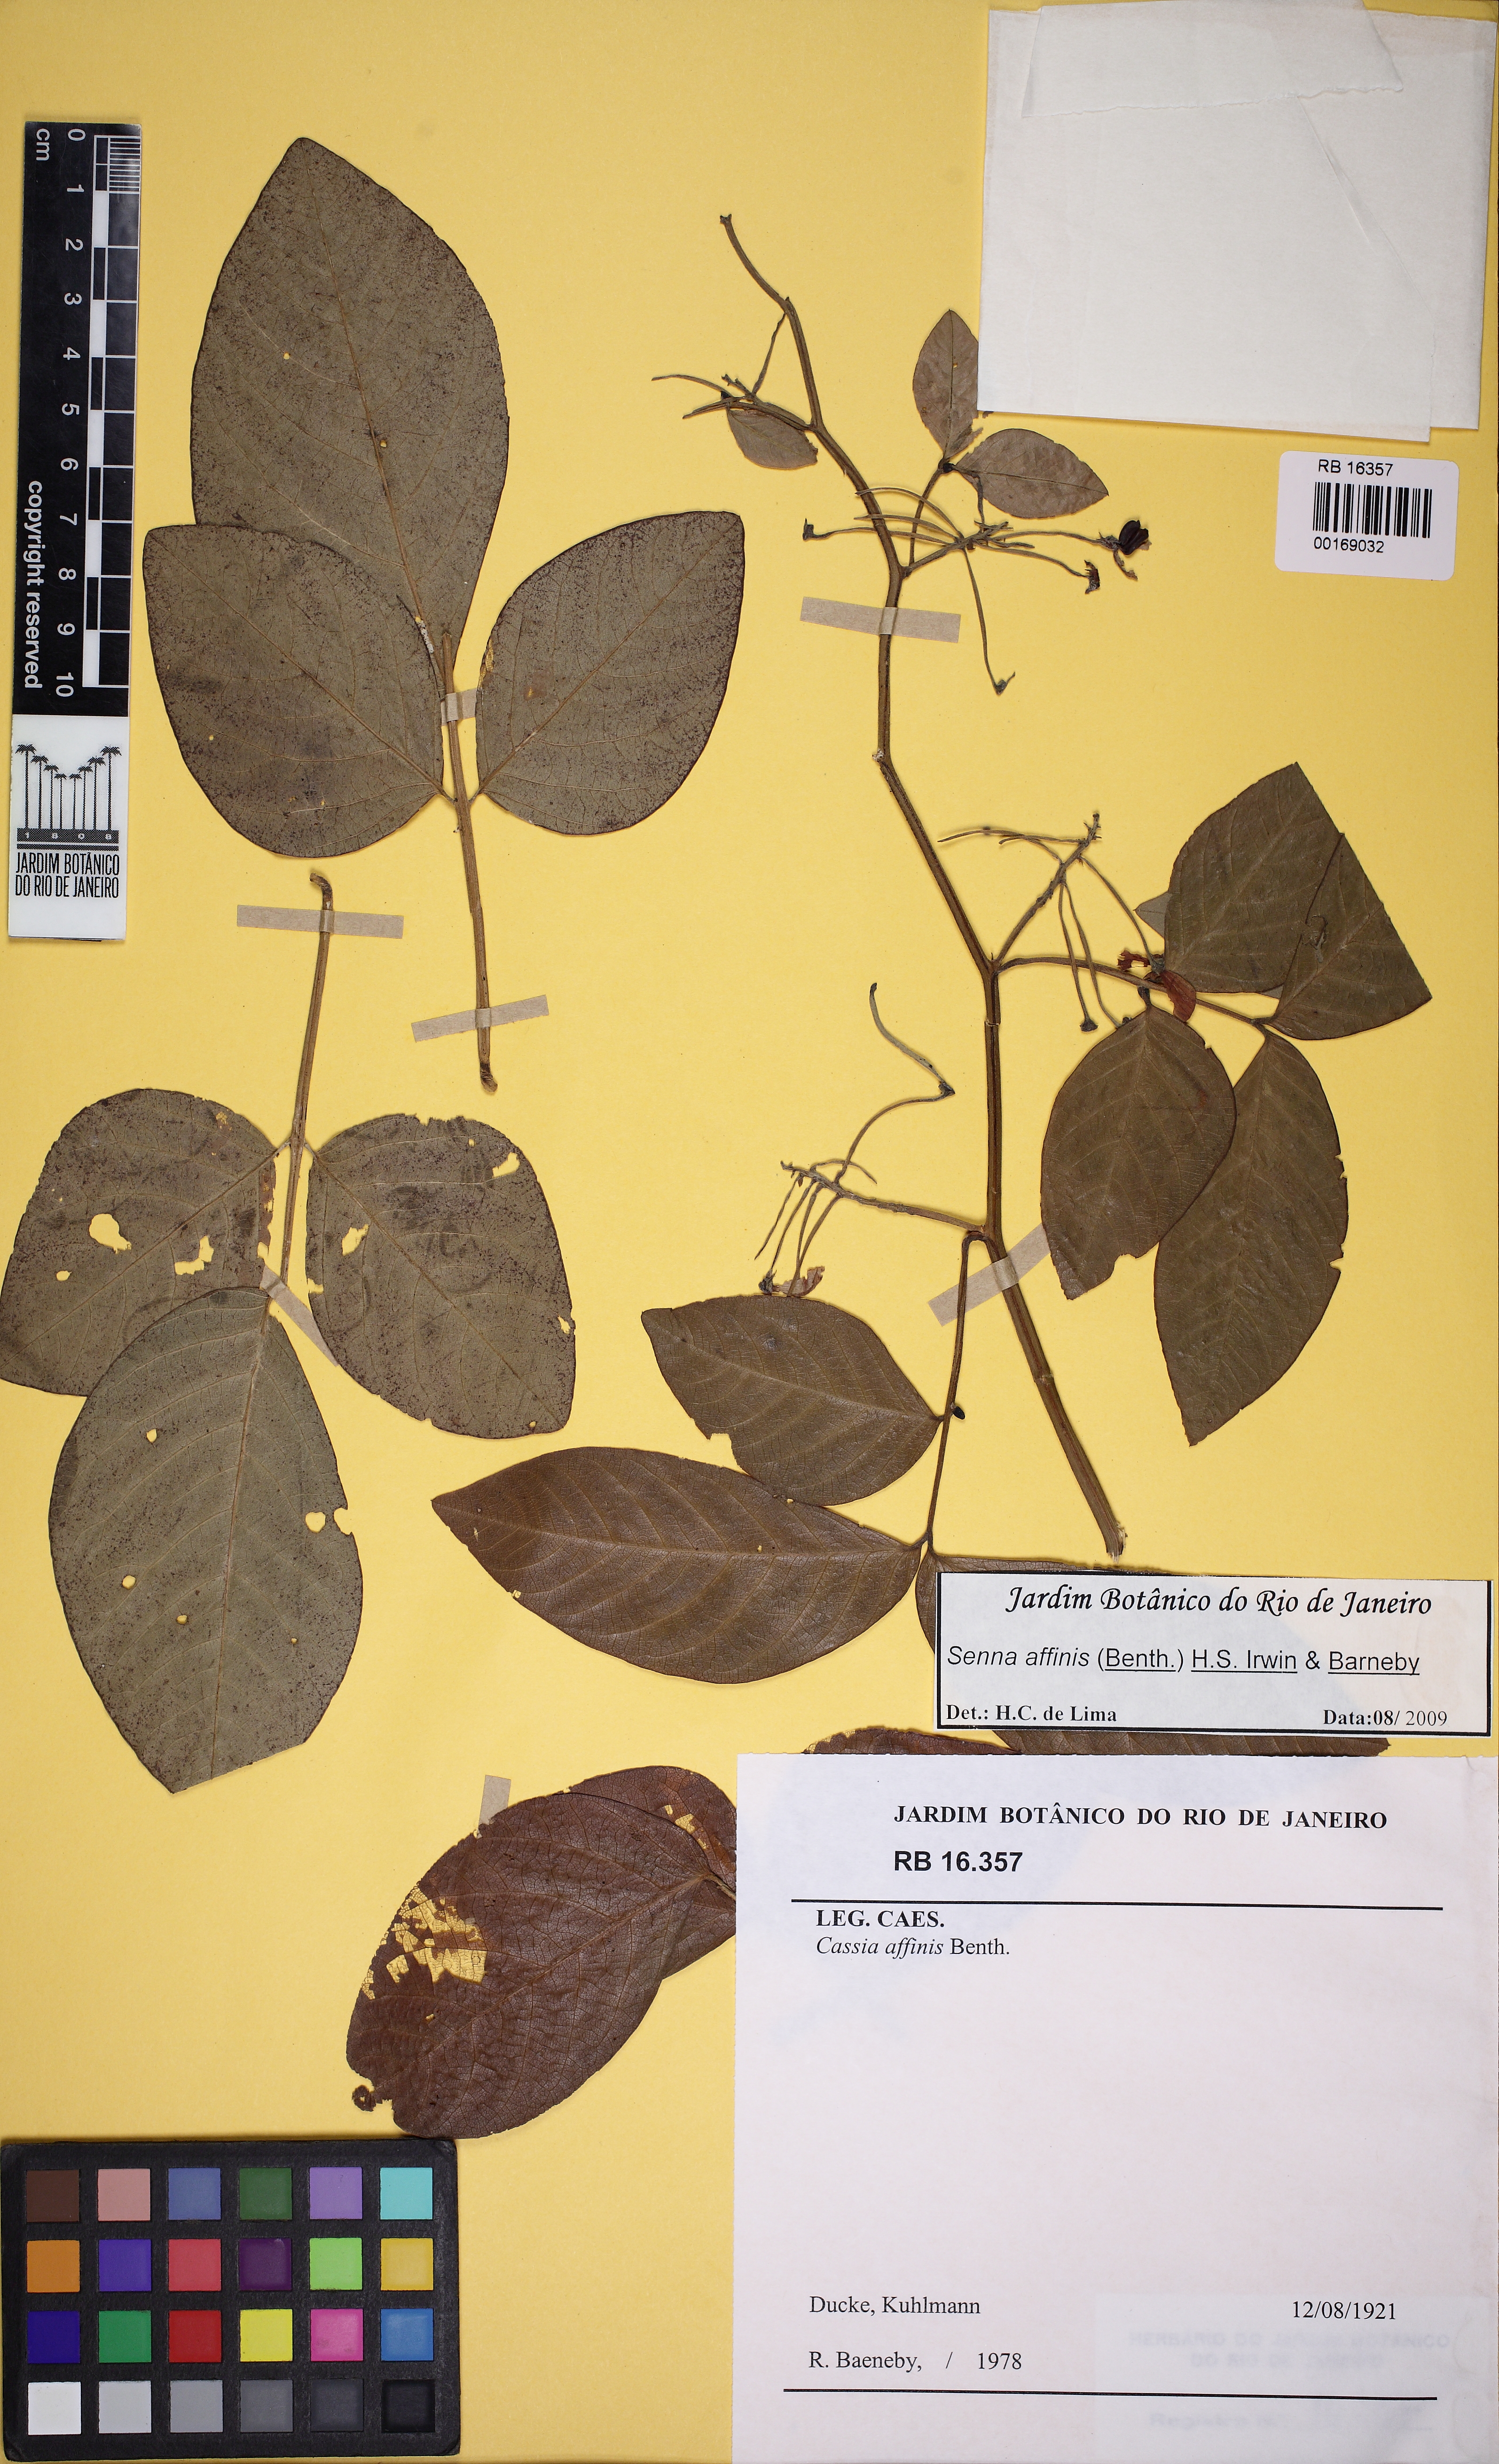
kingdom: Plantae
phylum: Tracheophyta
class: Magnoliopsida
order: Fabales
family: Fabaceae
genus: Senna
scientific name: Senna affinis
